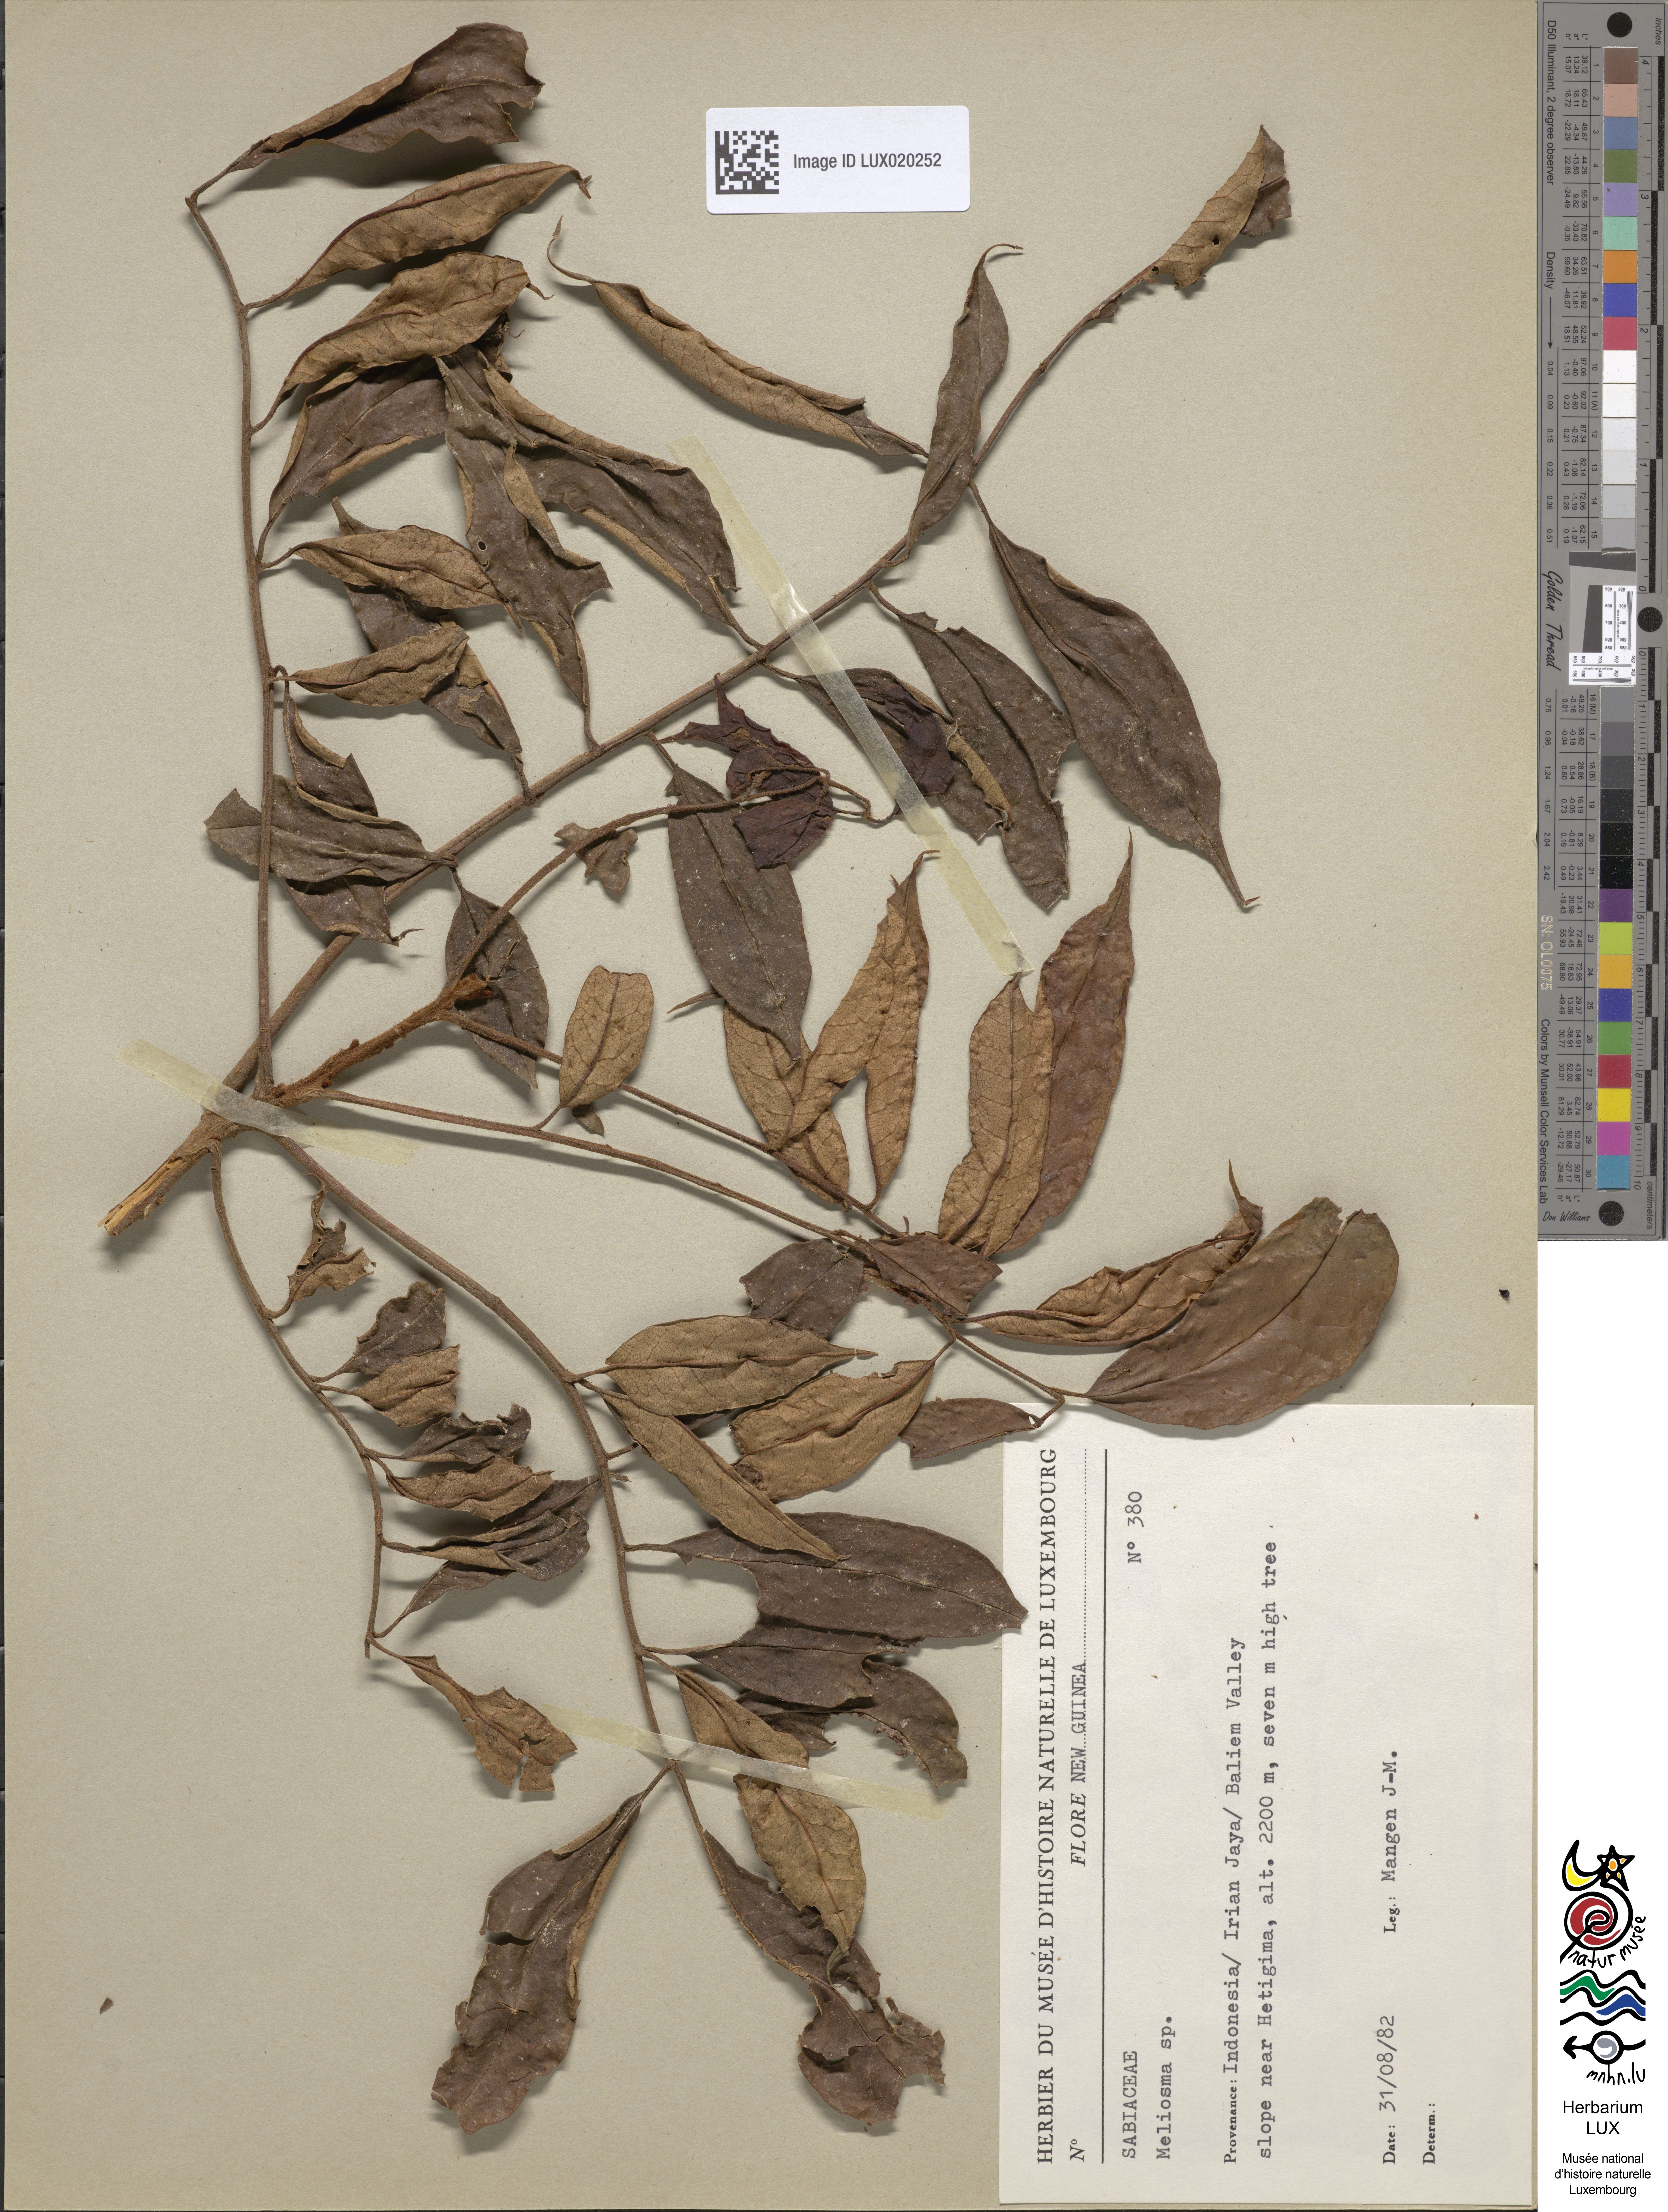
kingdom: Plantae
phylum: Tracheophyta
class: Magnoliopsida
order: Proteales
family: Sabiaceae
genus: Meliosma
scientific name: Meliosma
